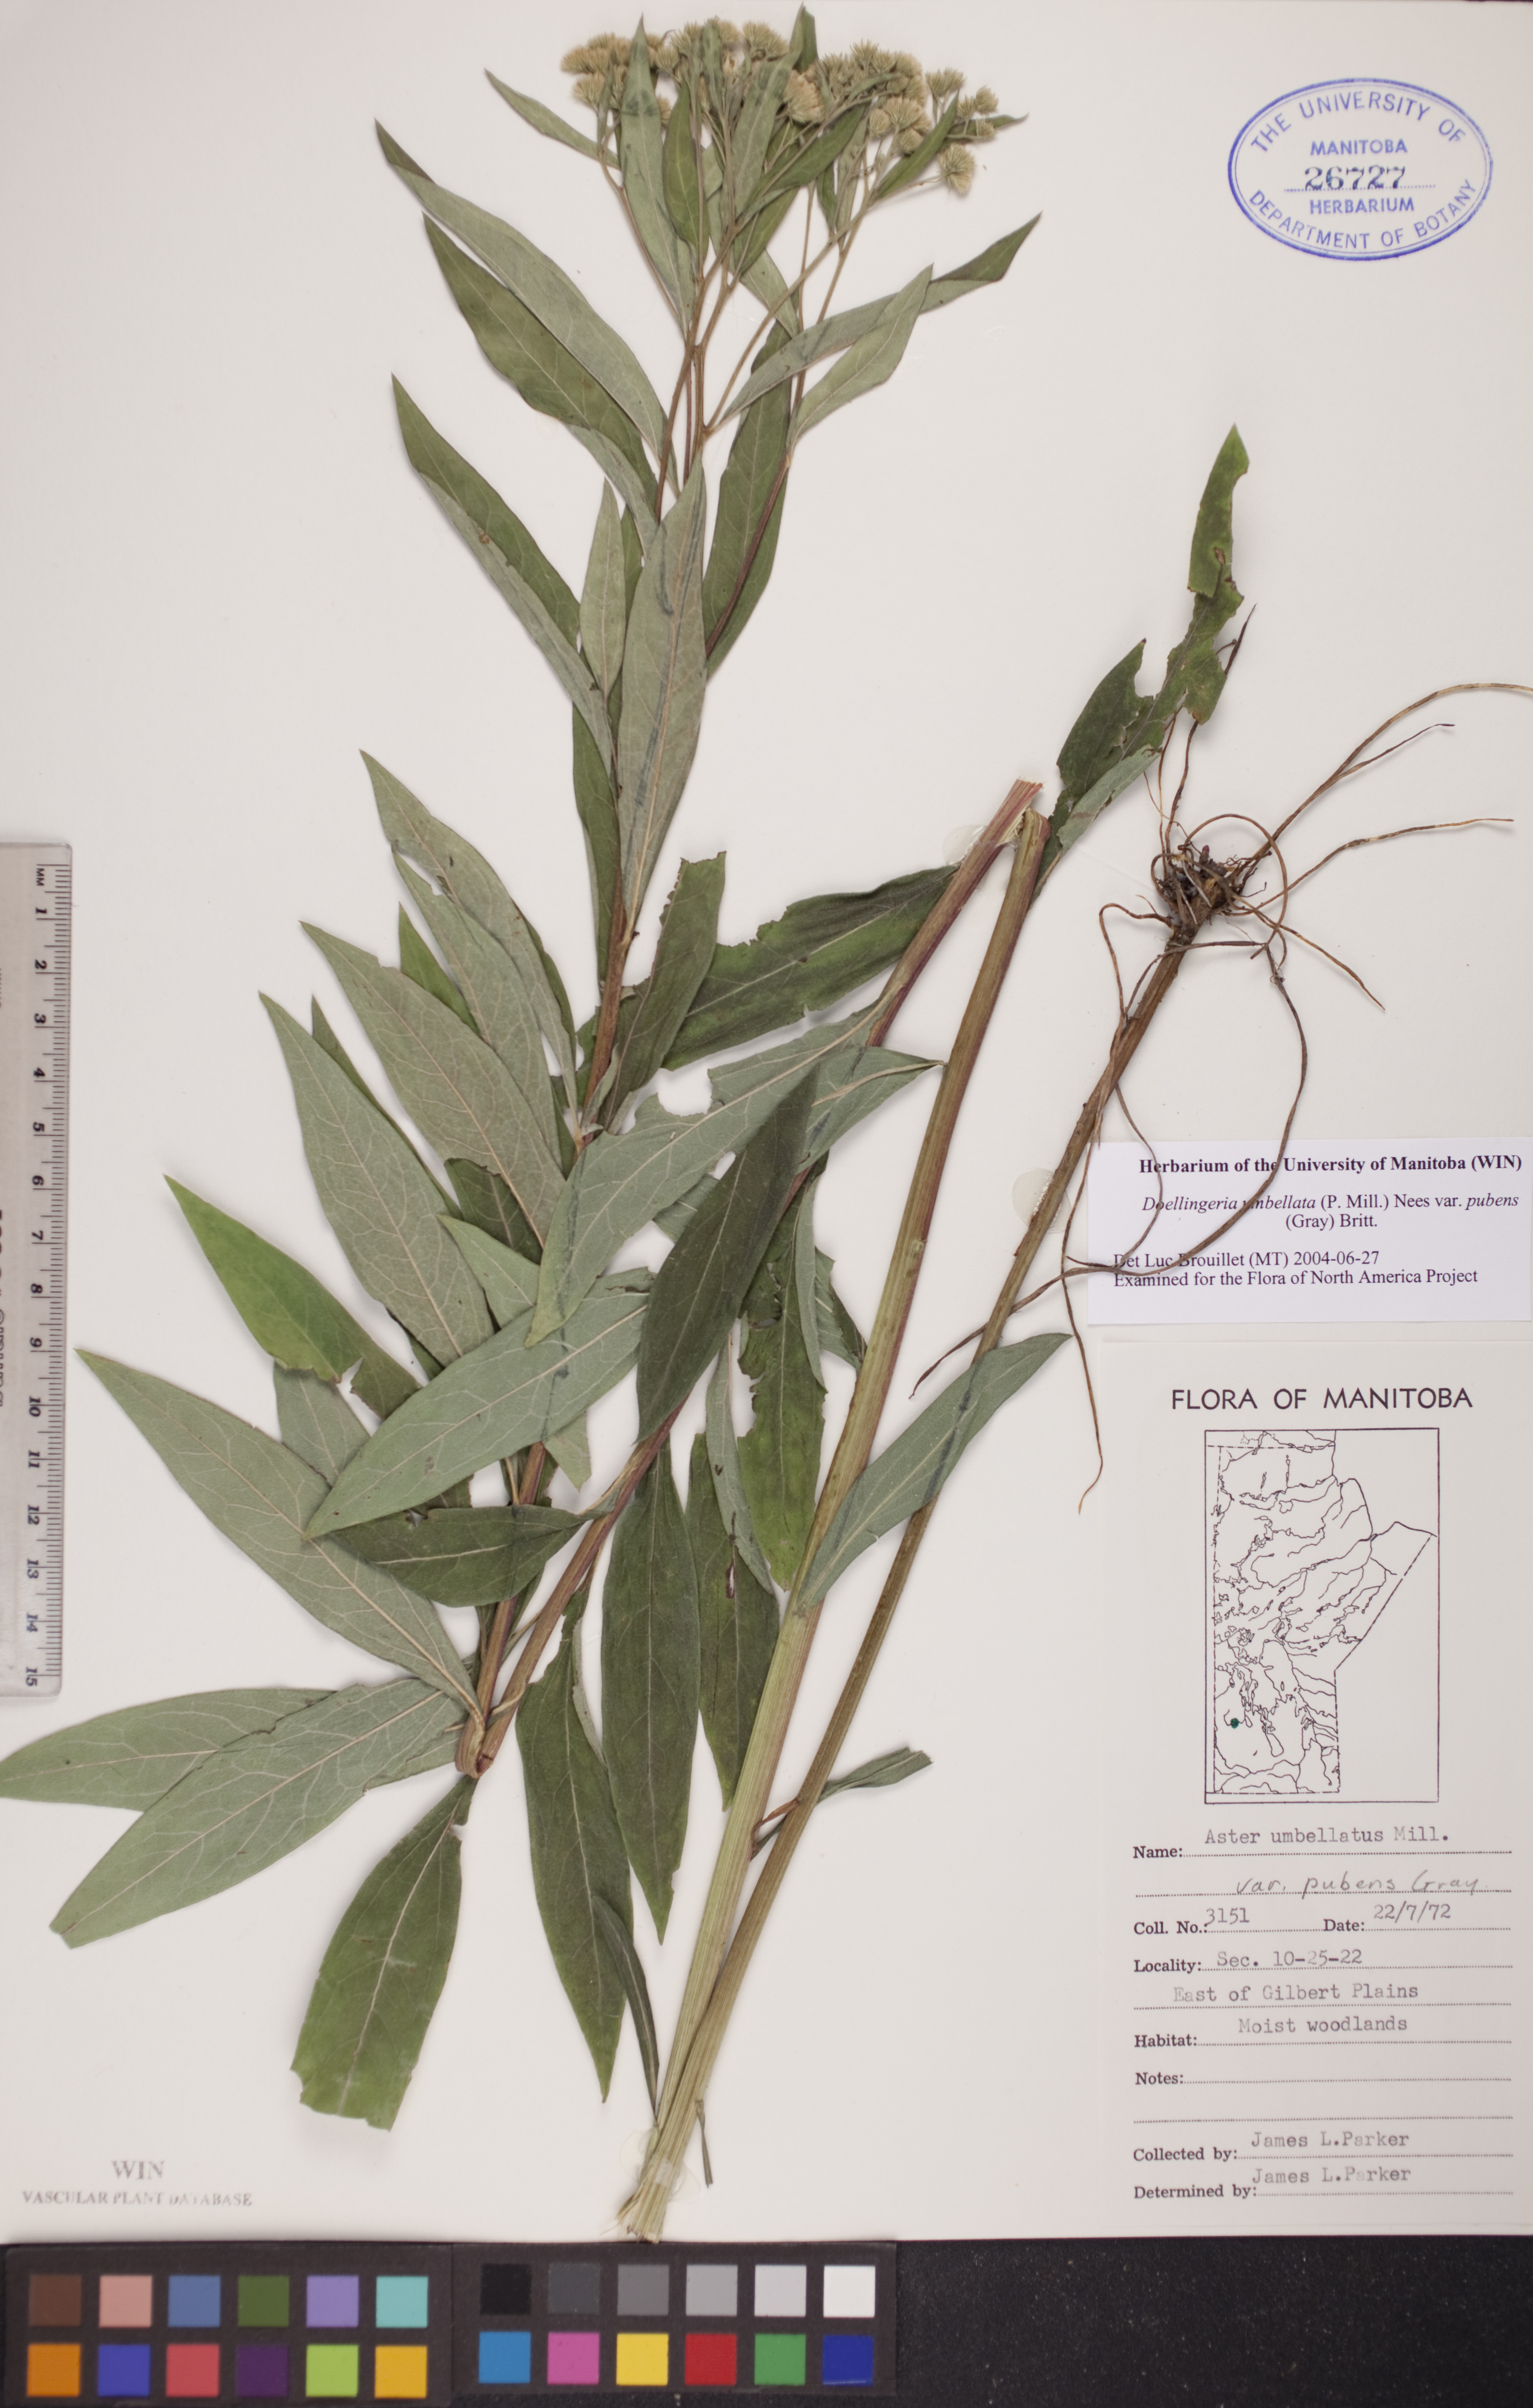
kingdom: Plantae
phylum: Tracheophyta
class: Magnoliopsida
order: Asterales
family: Asteraceae
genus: Doellingeria
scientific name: Doellingeria umbellata
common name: Flat-top white aster
